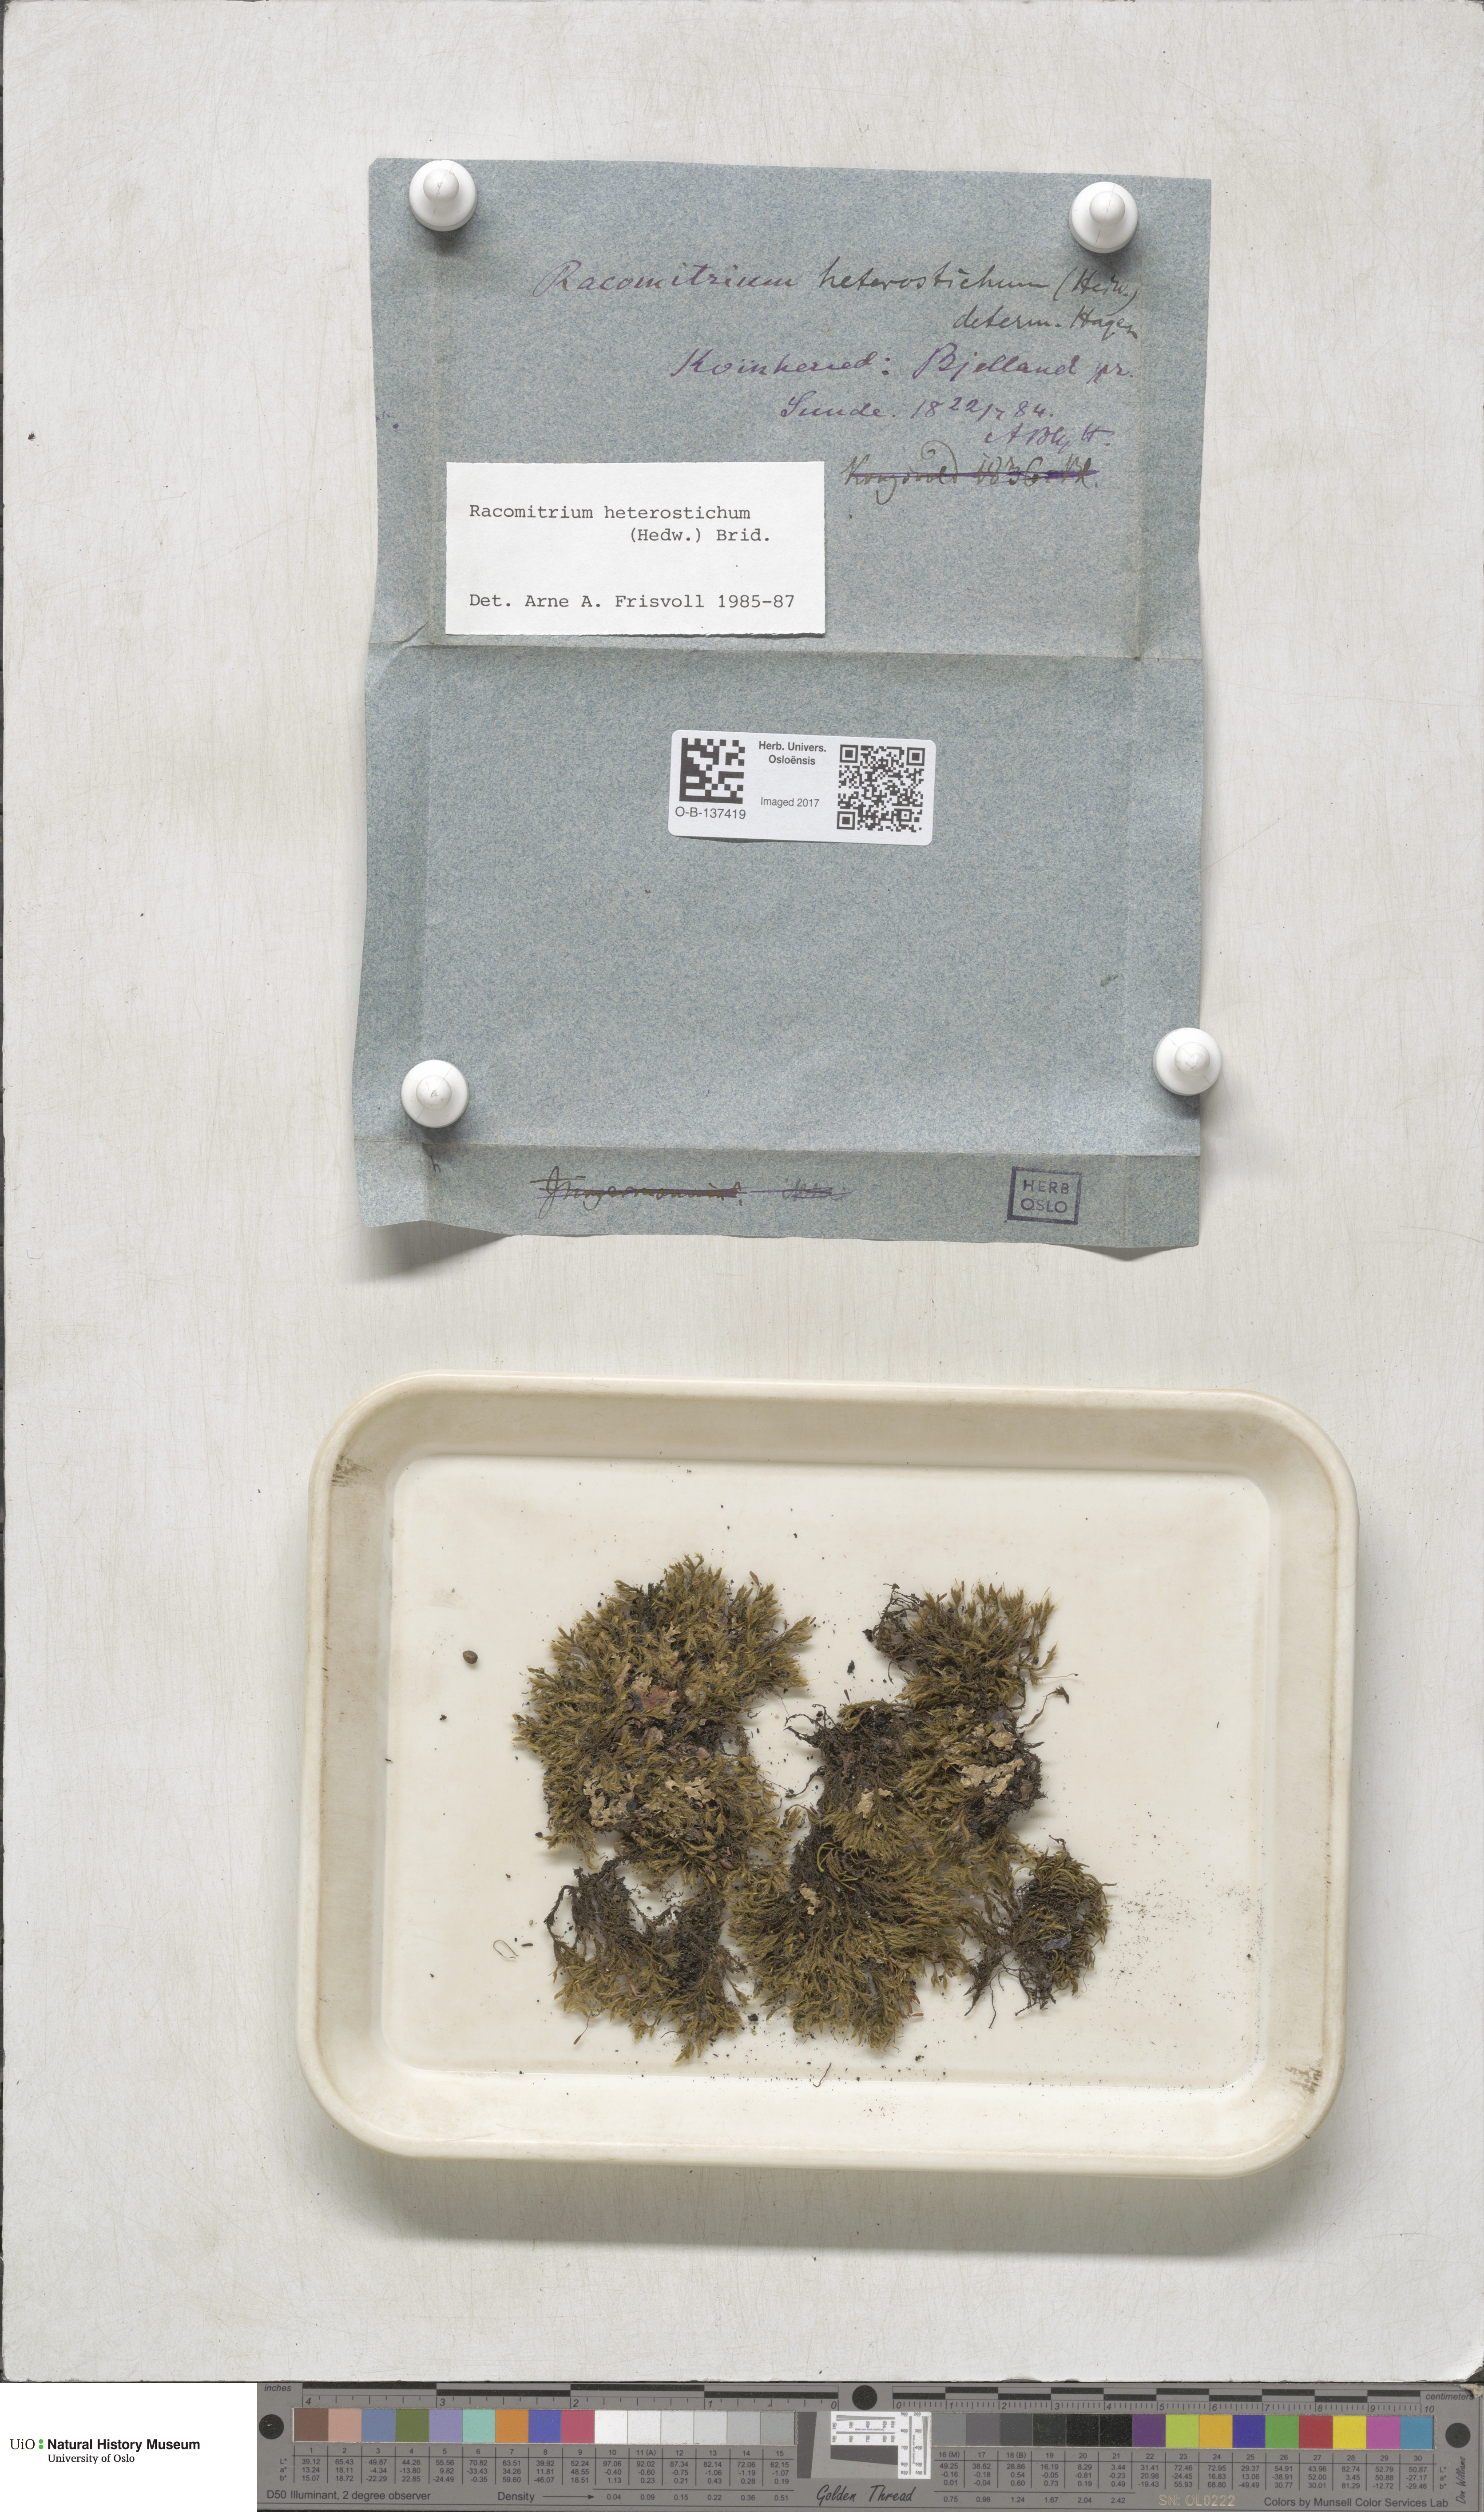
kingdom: Plantae
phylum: Bryophyta
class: Bryopsida
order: Grimmiales
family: Grimmiaceae
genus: Bucklandiella
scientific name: Bucklandiella heterosticha
